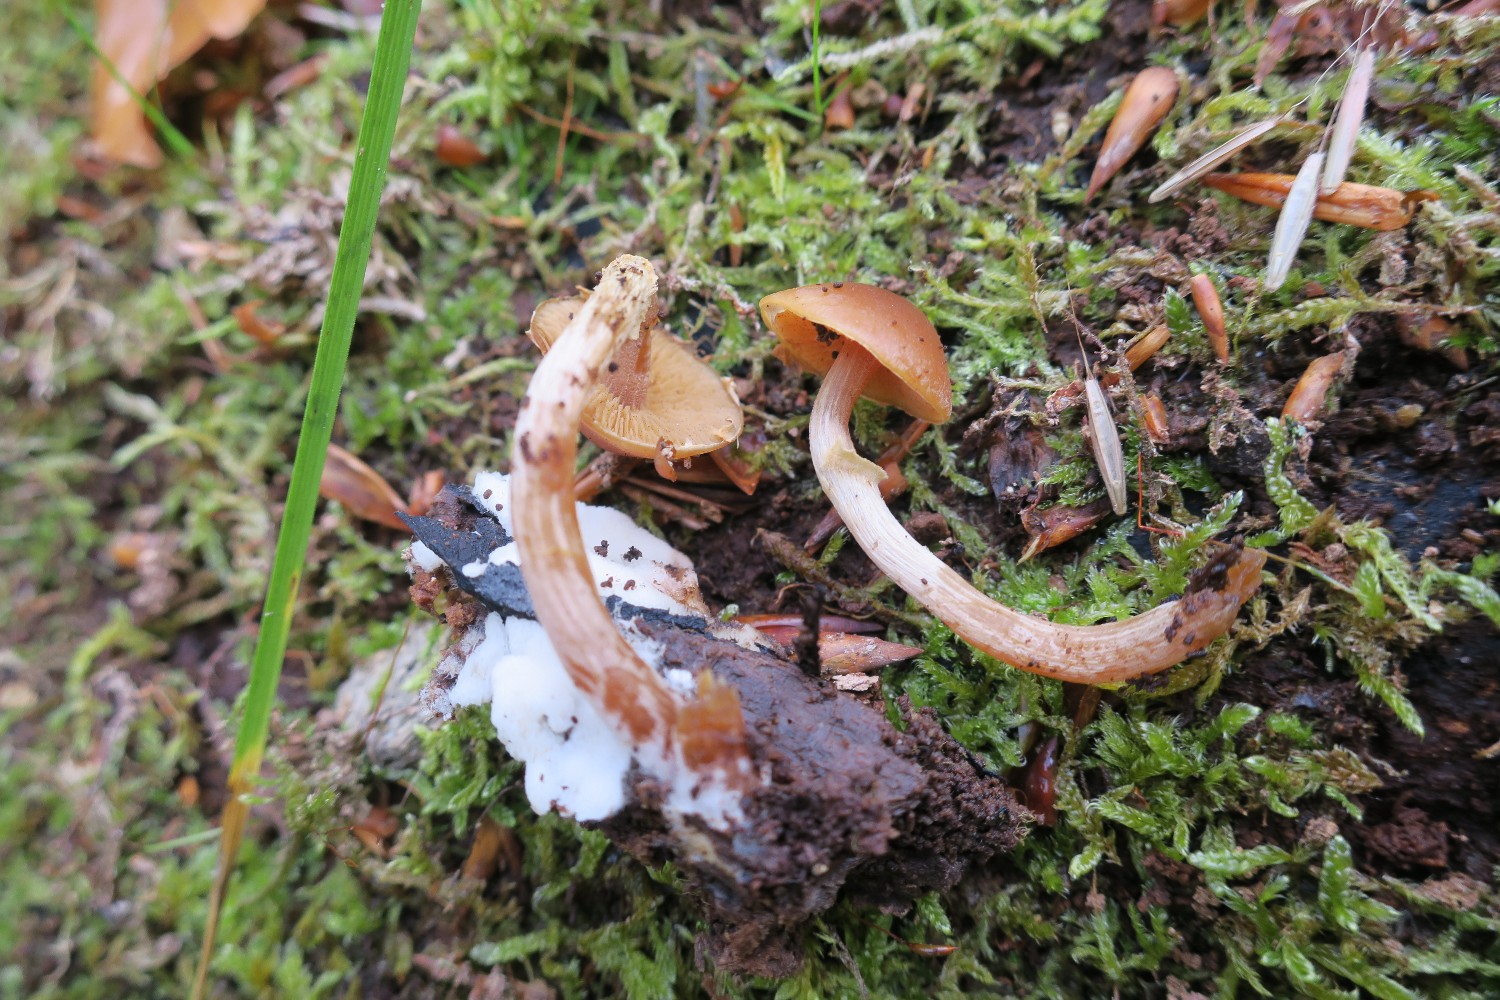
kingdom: Fungi
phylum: Basidiomycota
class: Agaricomycetes
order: Agaricales
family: Hymenogastraceae
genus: Galerina
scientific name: Galerina marginata
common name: randbæltet hjelmhat
